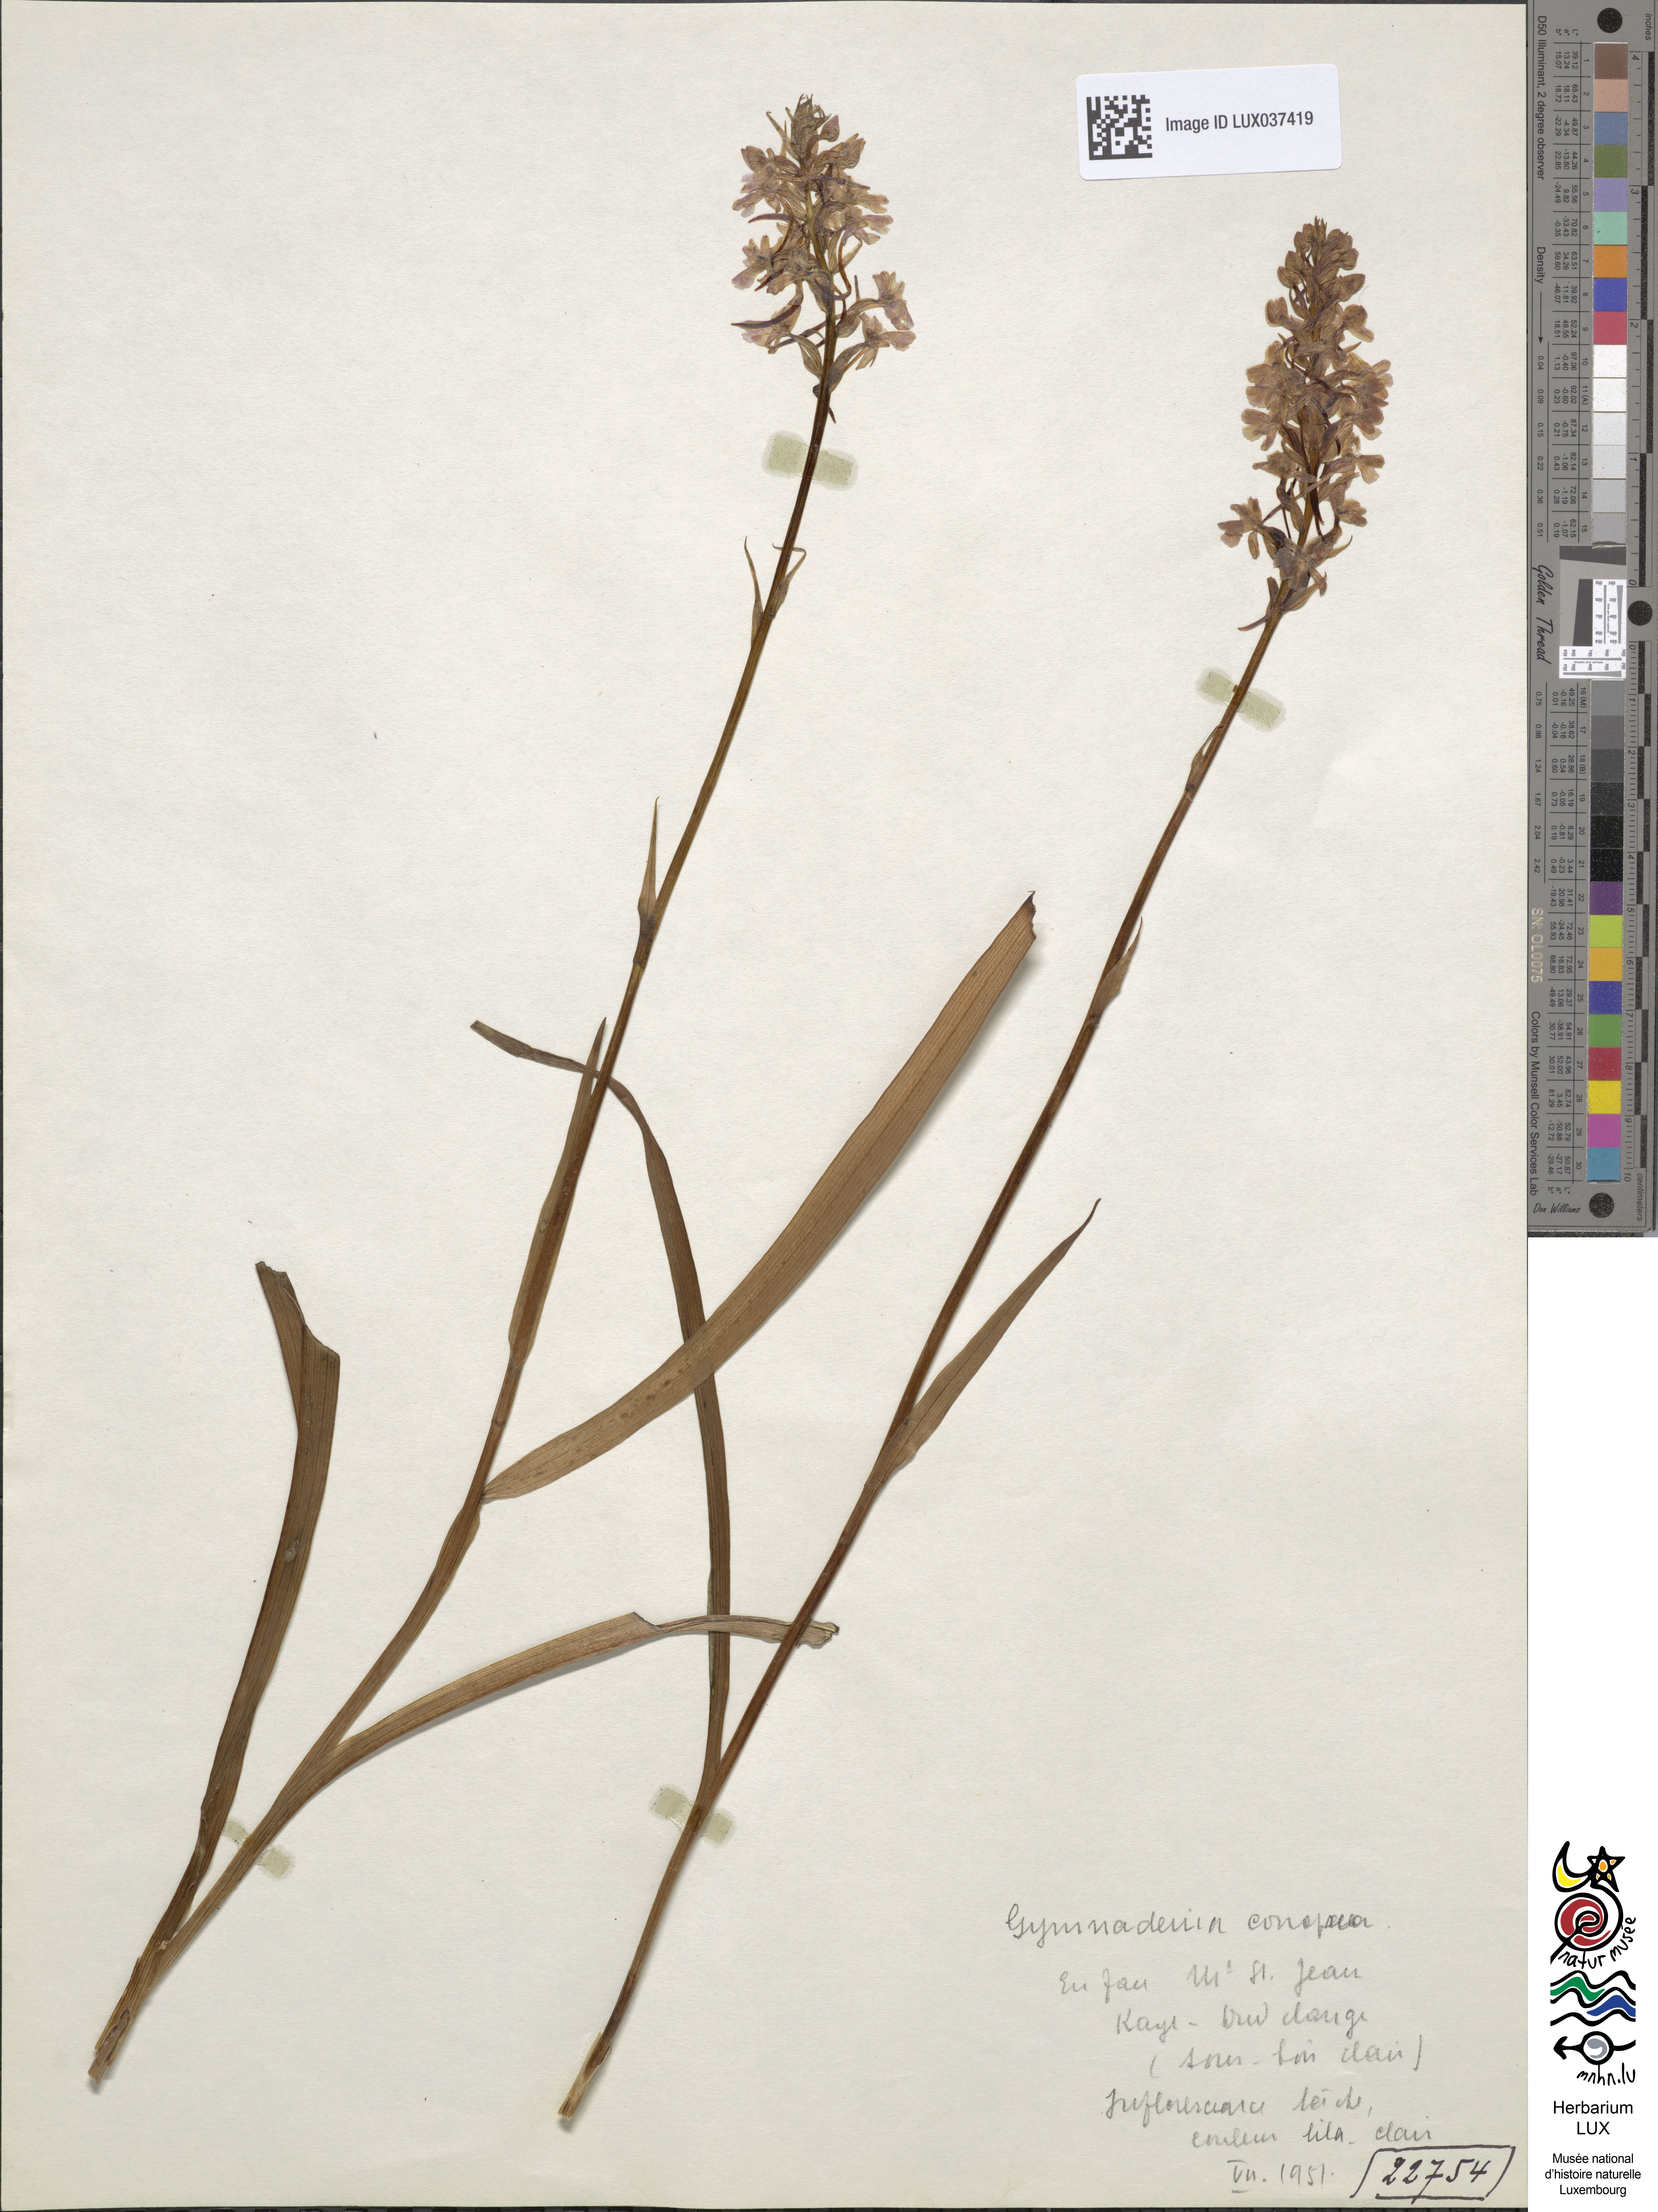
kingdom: Plantae
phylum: Tracheophyta
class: Liliopsida
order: Asparagales
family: Orchidaceae
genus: Gymnadenia
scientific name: Gymnadenia conopsea
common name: Fragrant orchid
